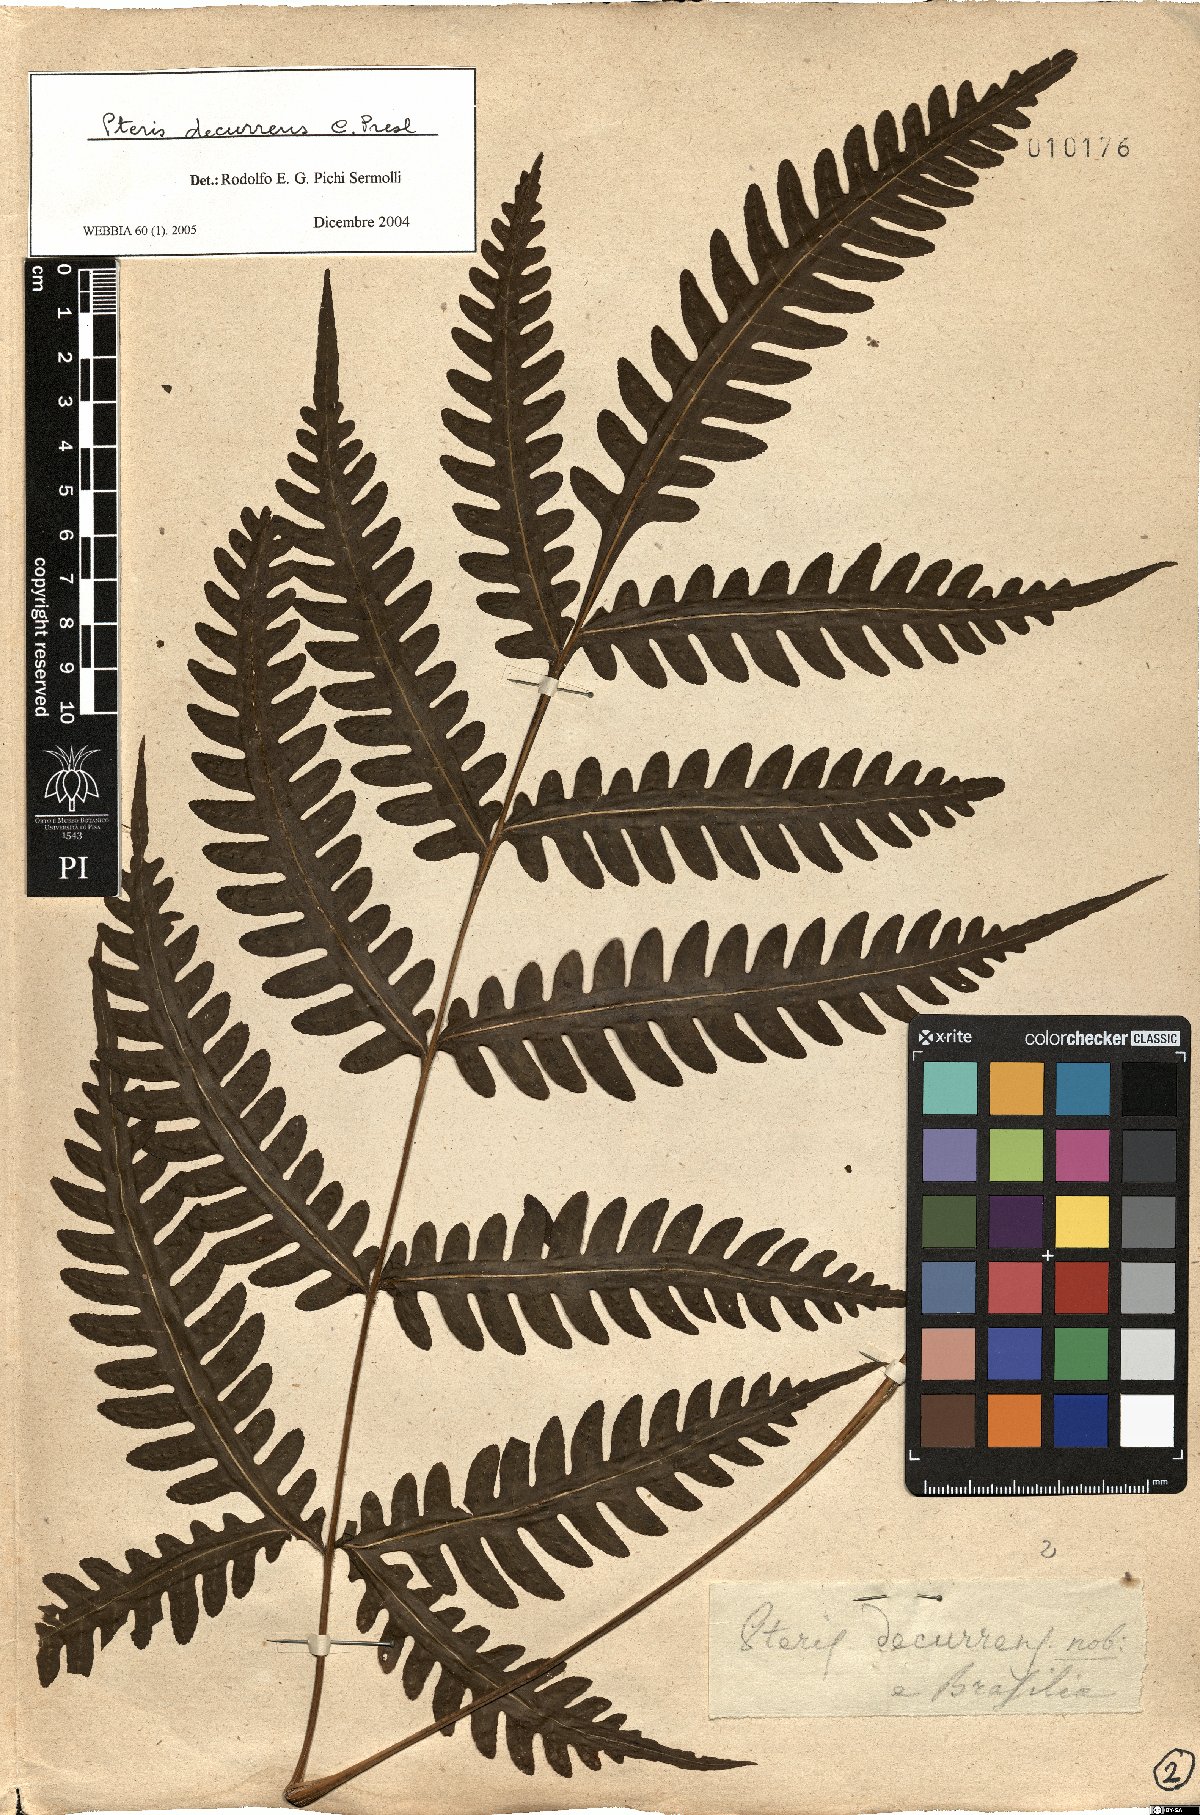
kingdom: Plantae
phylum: Tracheophyta
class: Polypodiopsida
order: Polypodiales
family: Pteridaceae
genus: Pteris
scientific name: Pteris decurrens
